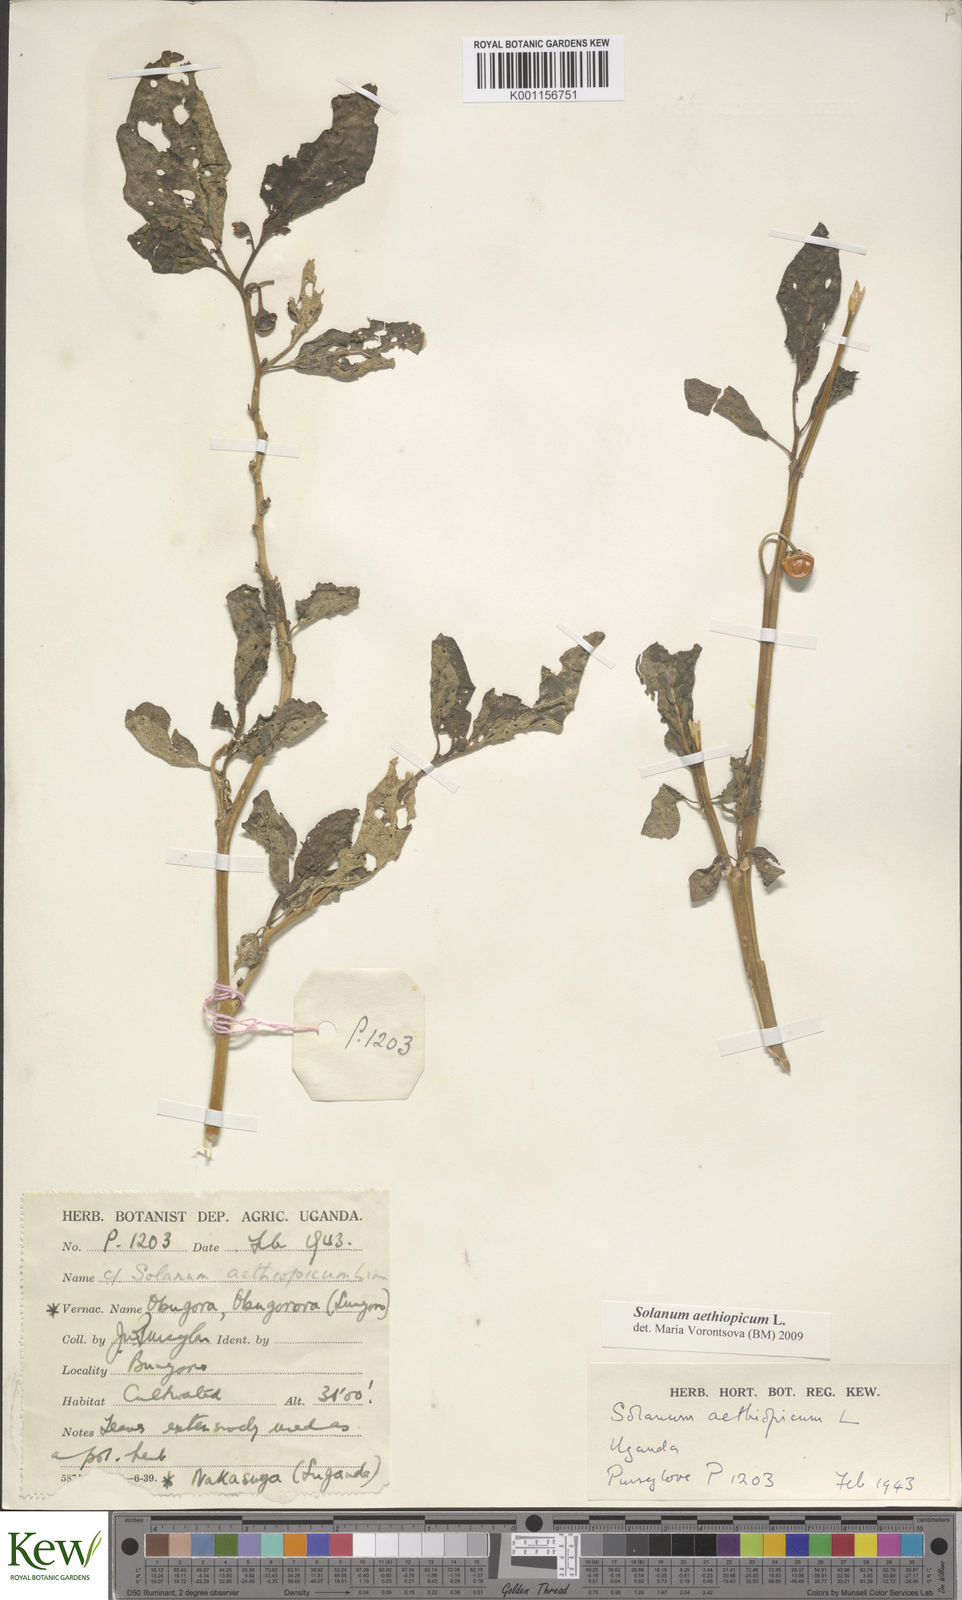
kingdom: Plantae
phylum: Tracheophyta
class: Magnoliopsida
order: Solanales
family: Solanaceae
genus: Solanum
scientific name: Solanum aethiopicum
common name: Gilo
